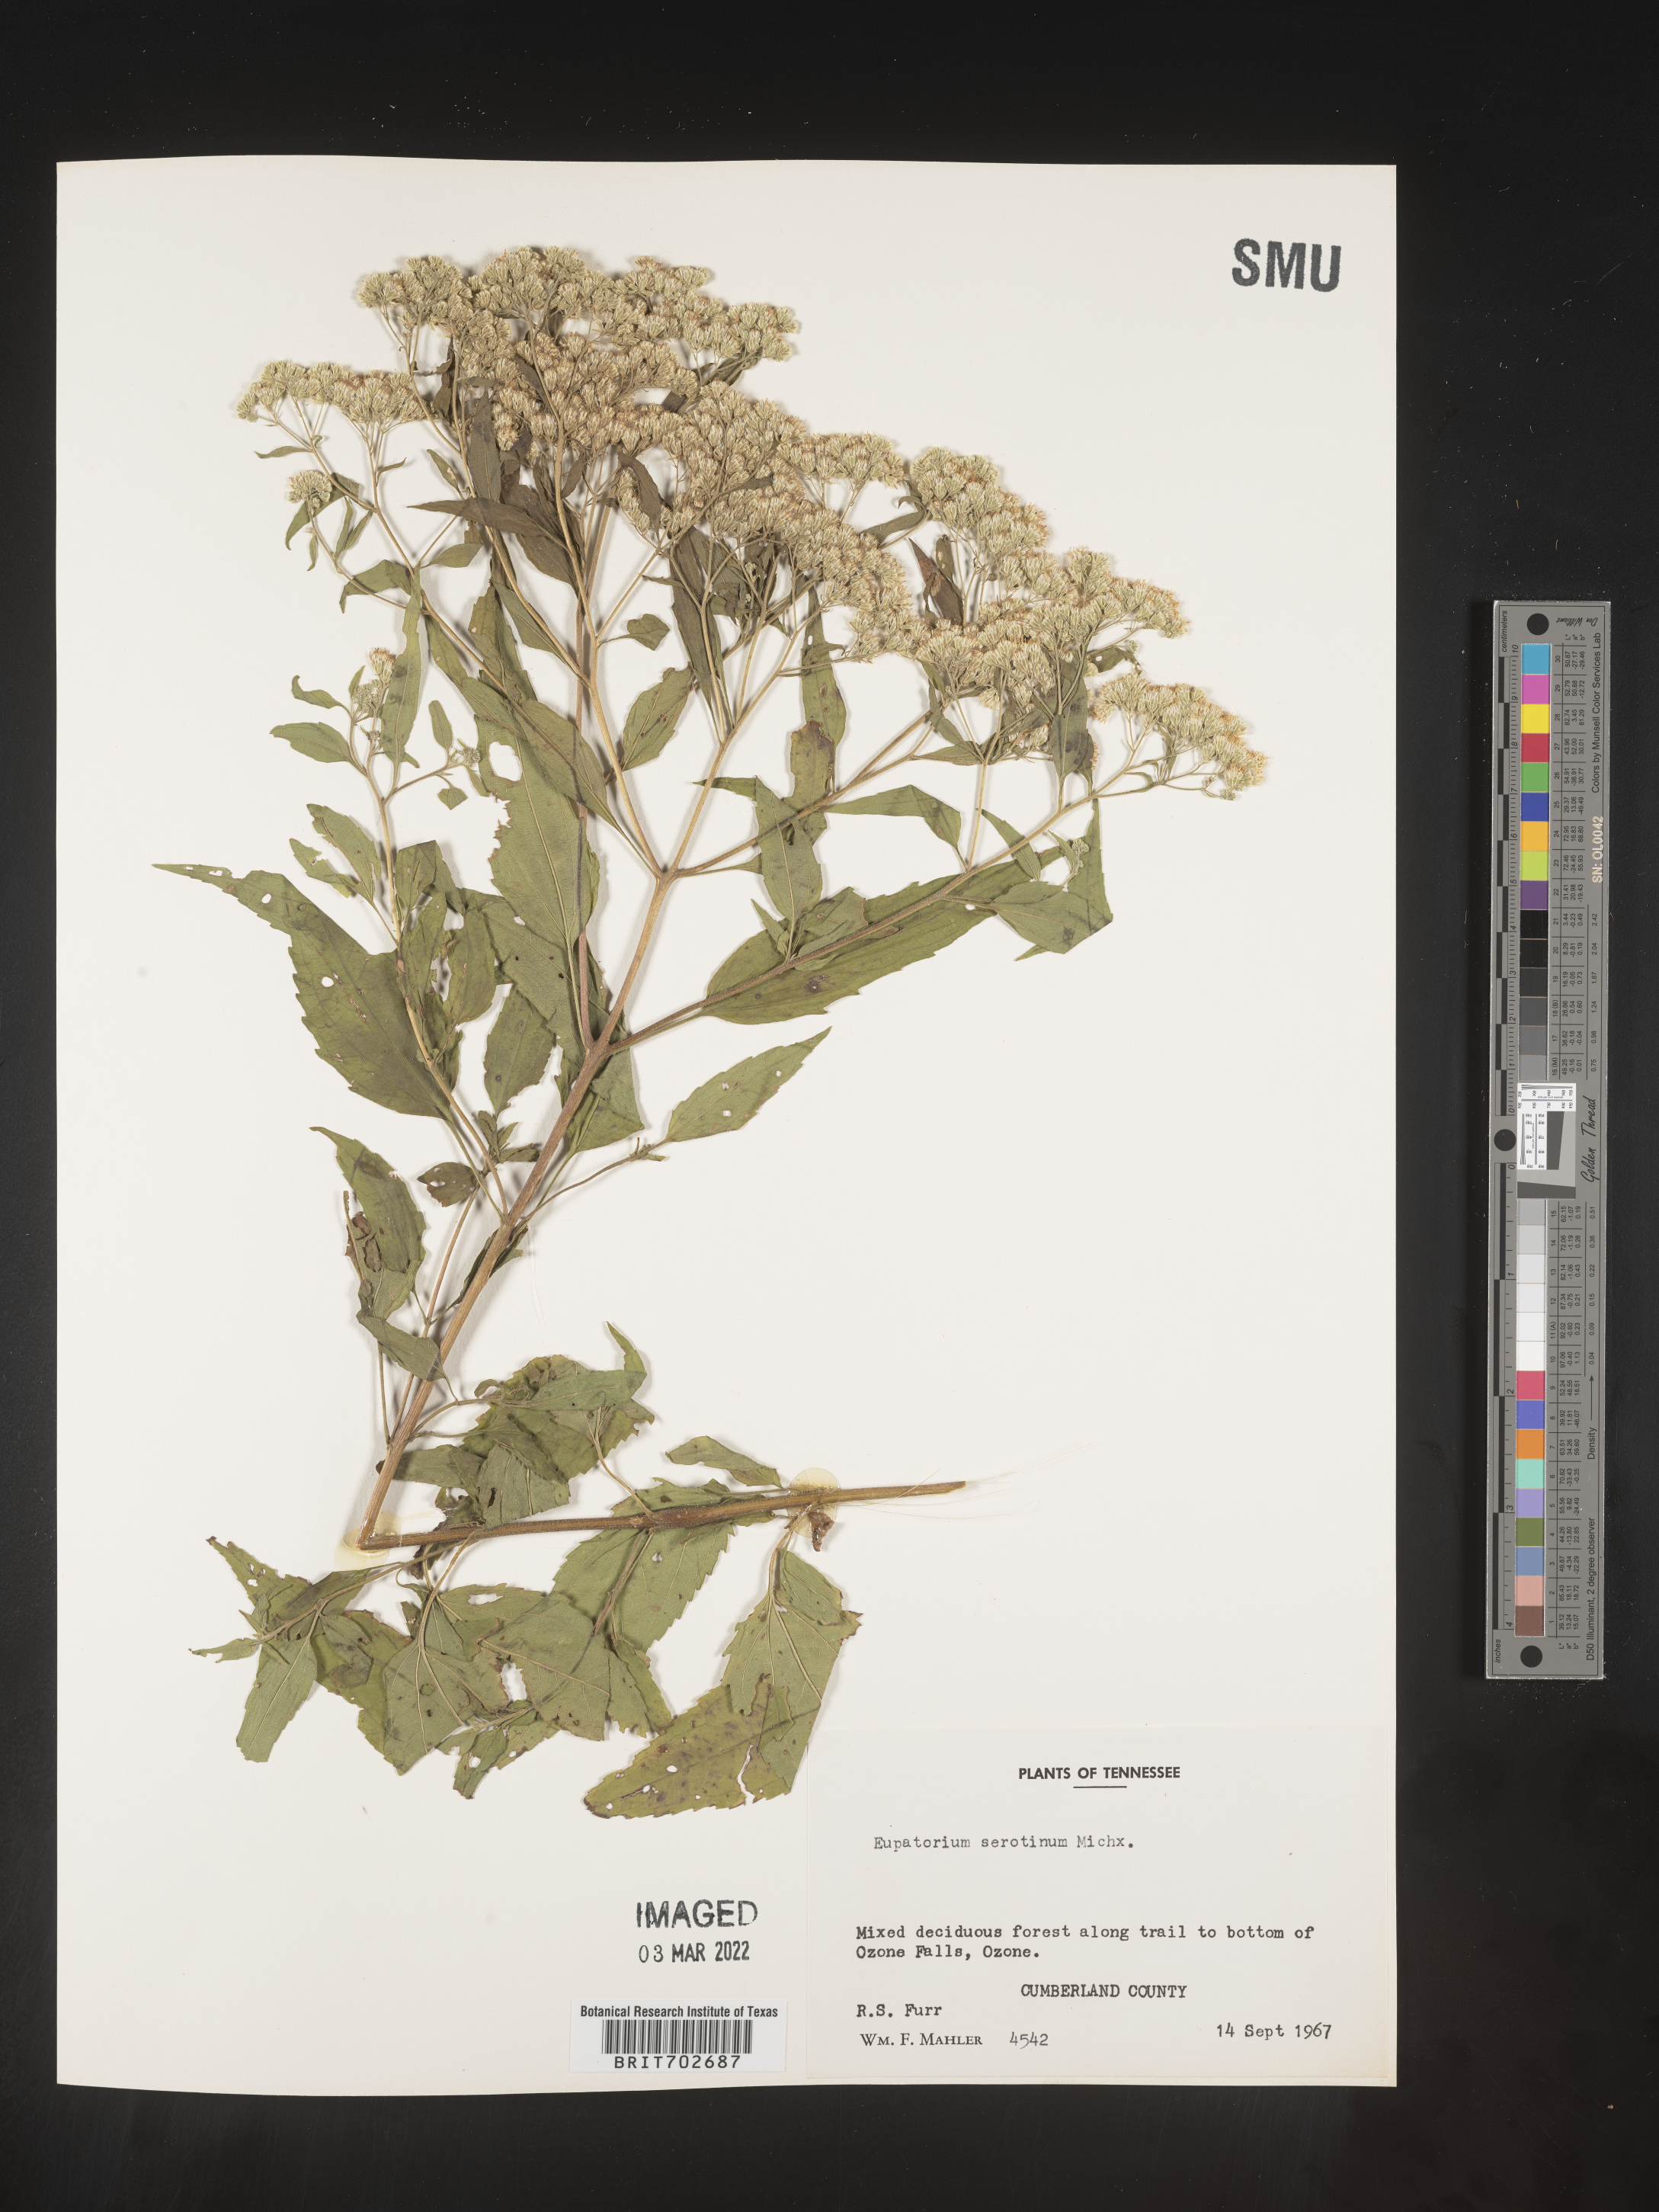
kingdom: Plantae
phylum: Tracheophyta
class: Magnoliopsida
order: Asterales
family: Asteraceae
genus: Eupatorium
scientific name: Eupatorium serotinum
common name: Late boneset
